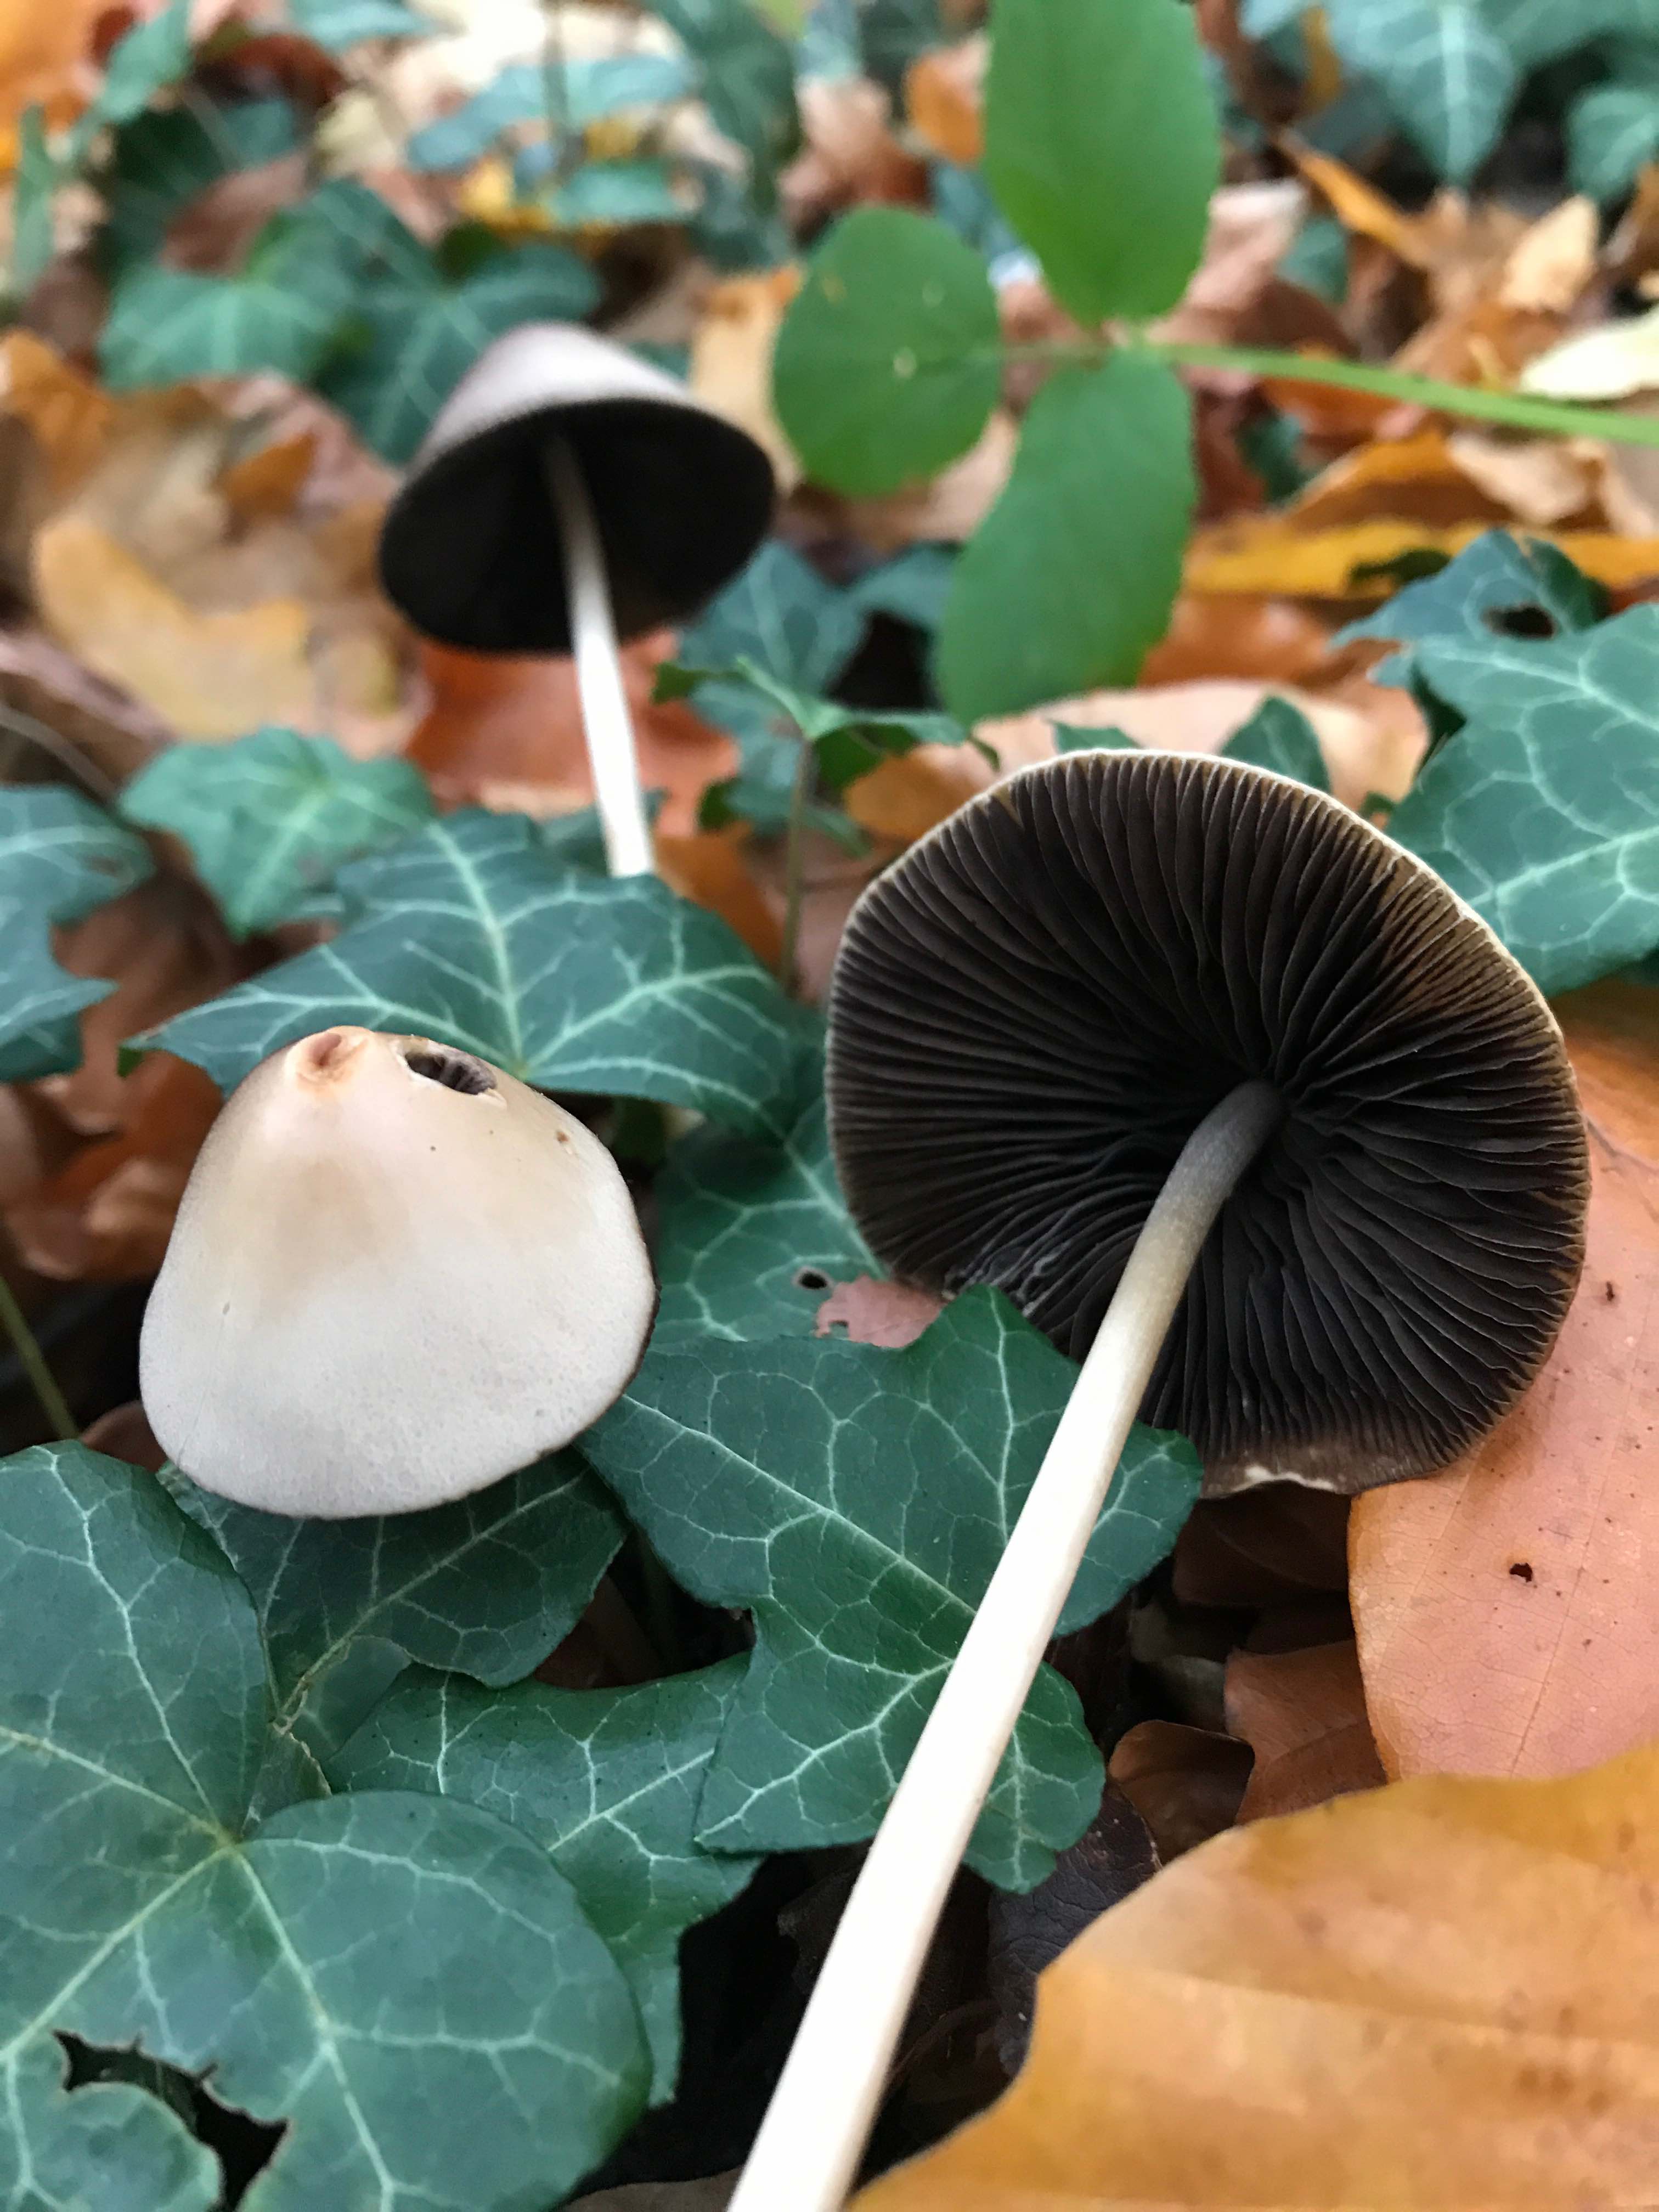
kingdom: Fungi
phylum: Basidiomycota
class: Agaricomycetes
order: Agaricales
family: Psathyrellaceae
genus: Parasola
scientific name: Parasola conopilea
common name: kegle-hjulhat
